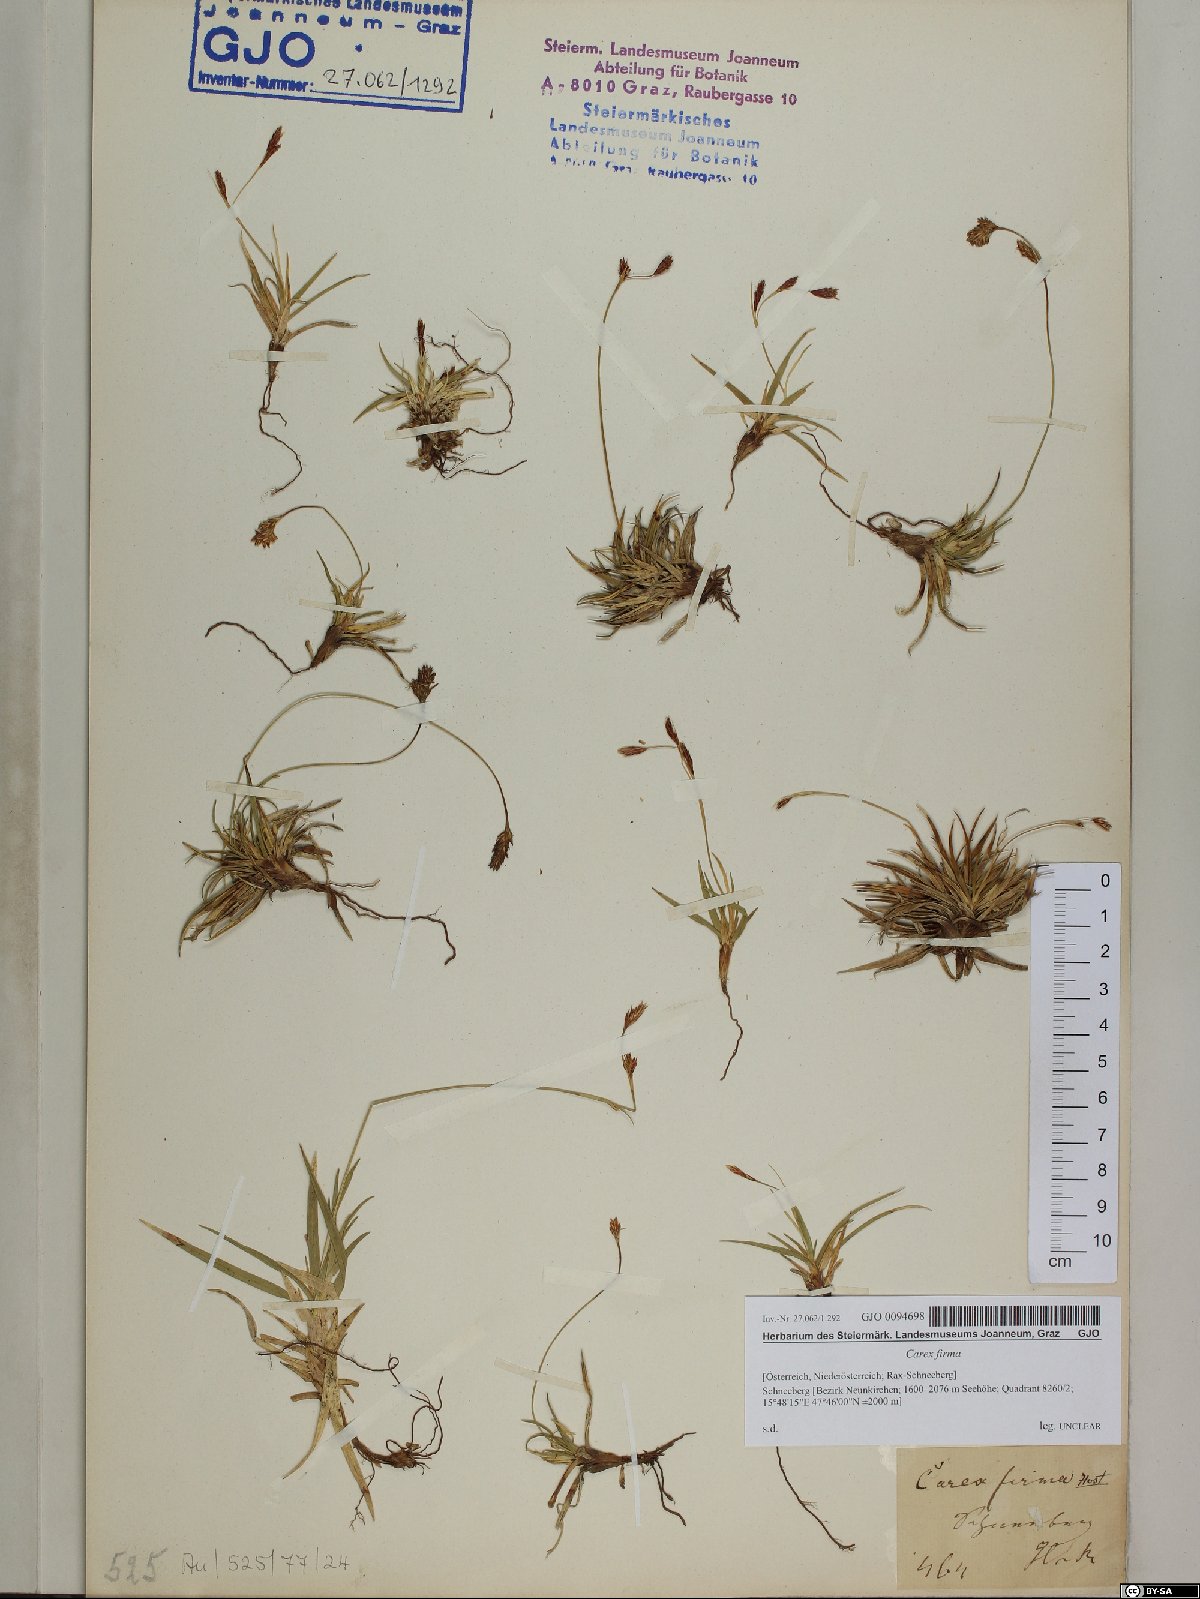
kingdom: Plantae
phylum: Tracheophyta
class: Liliopsida
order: Poales
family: Cyperaceae
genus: Carex
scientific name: Carex firma
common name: Dwarf pillow sedge
